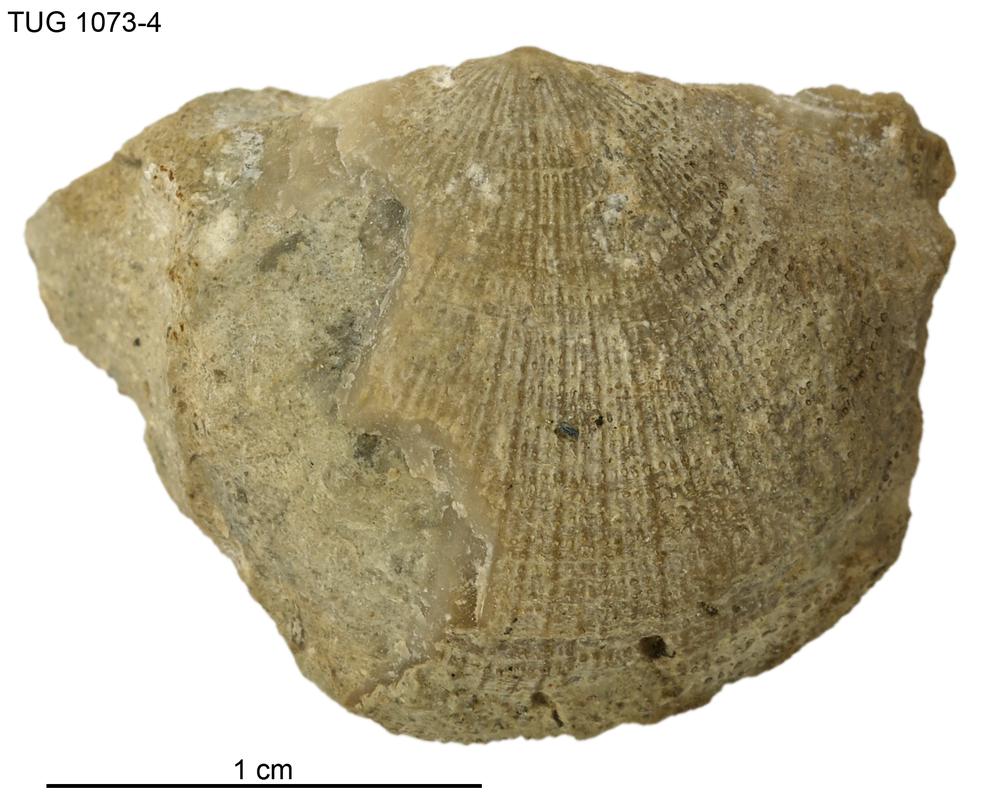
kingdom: Animalia
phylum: Brachiopoda
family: Gonambonitidae
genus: Estlandia
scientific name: Estlandia
